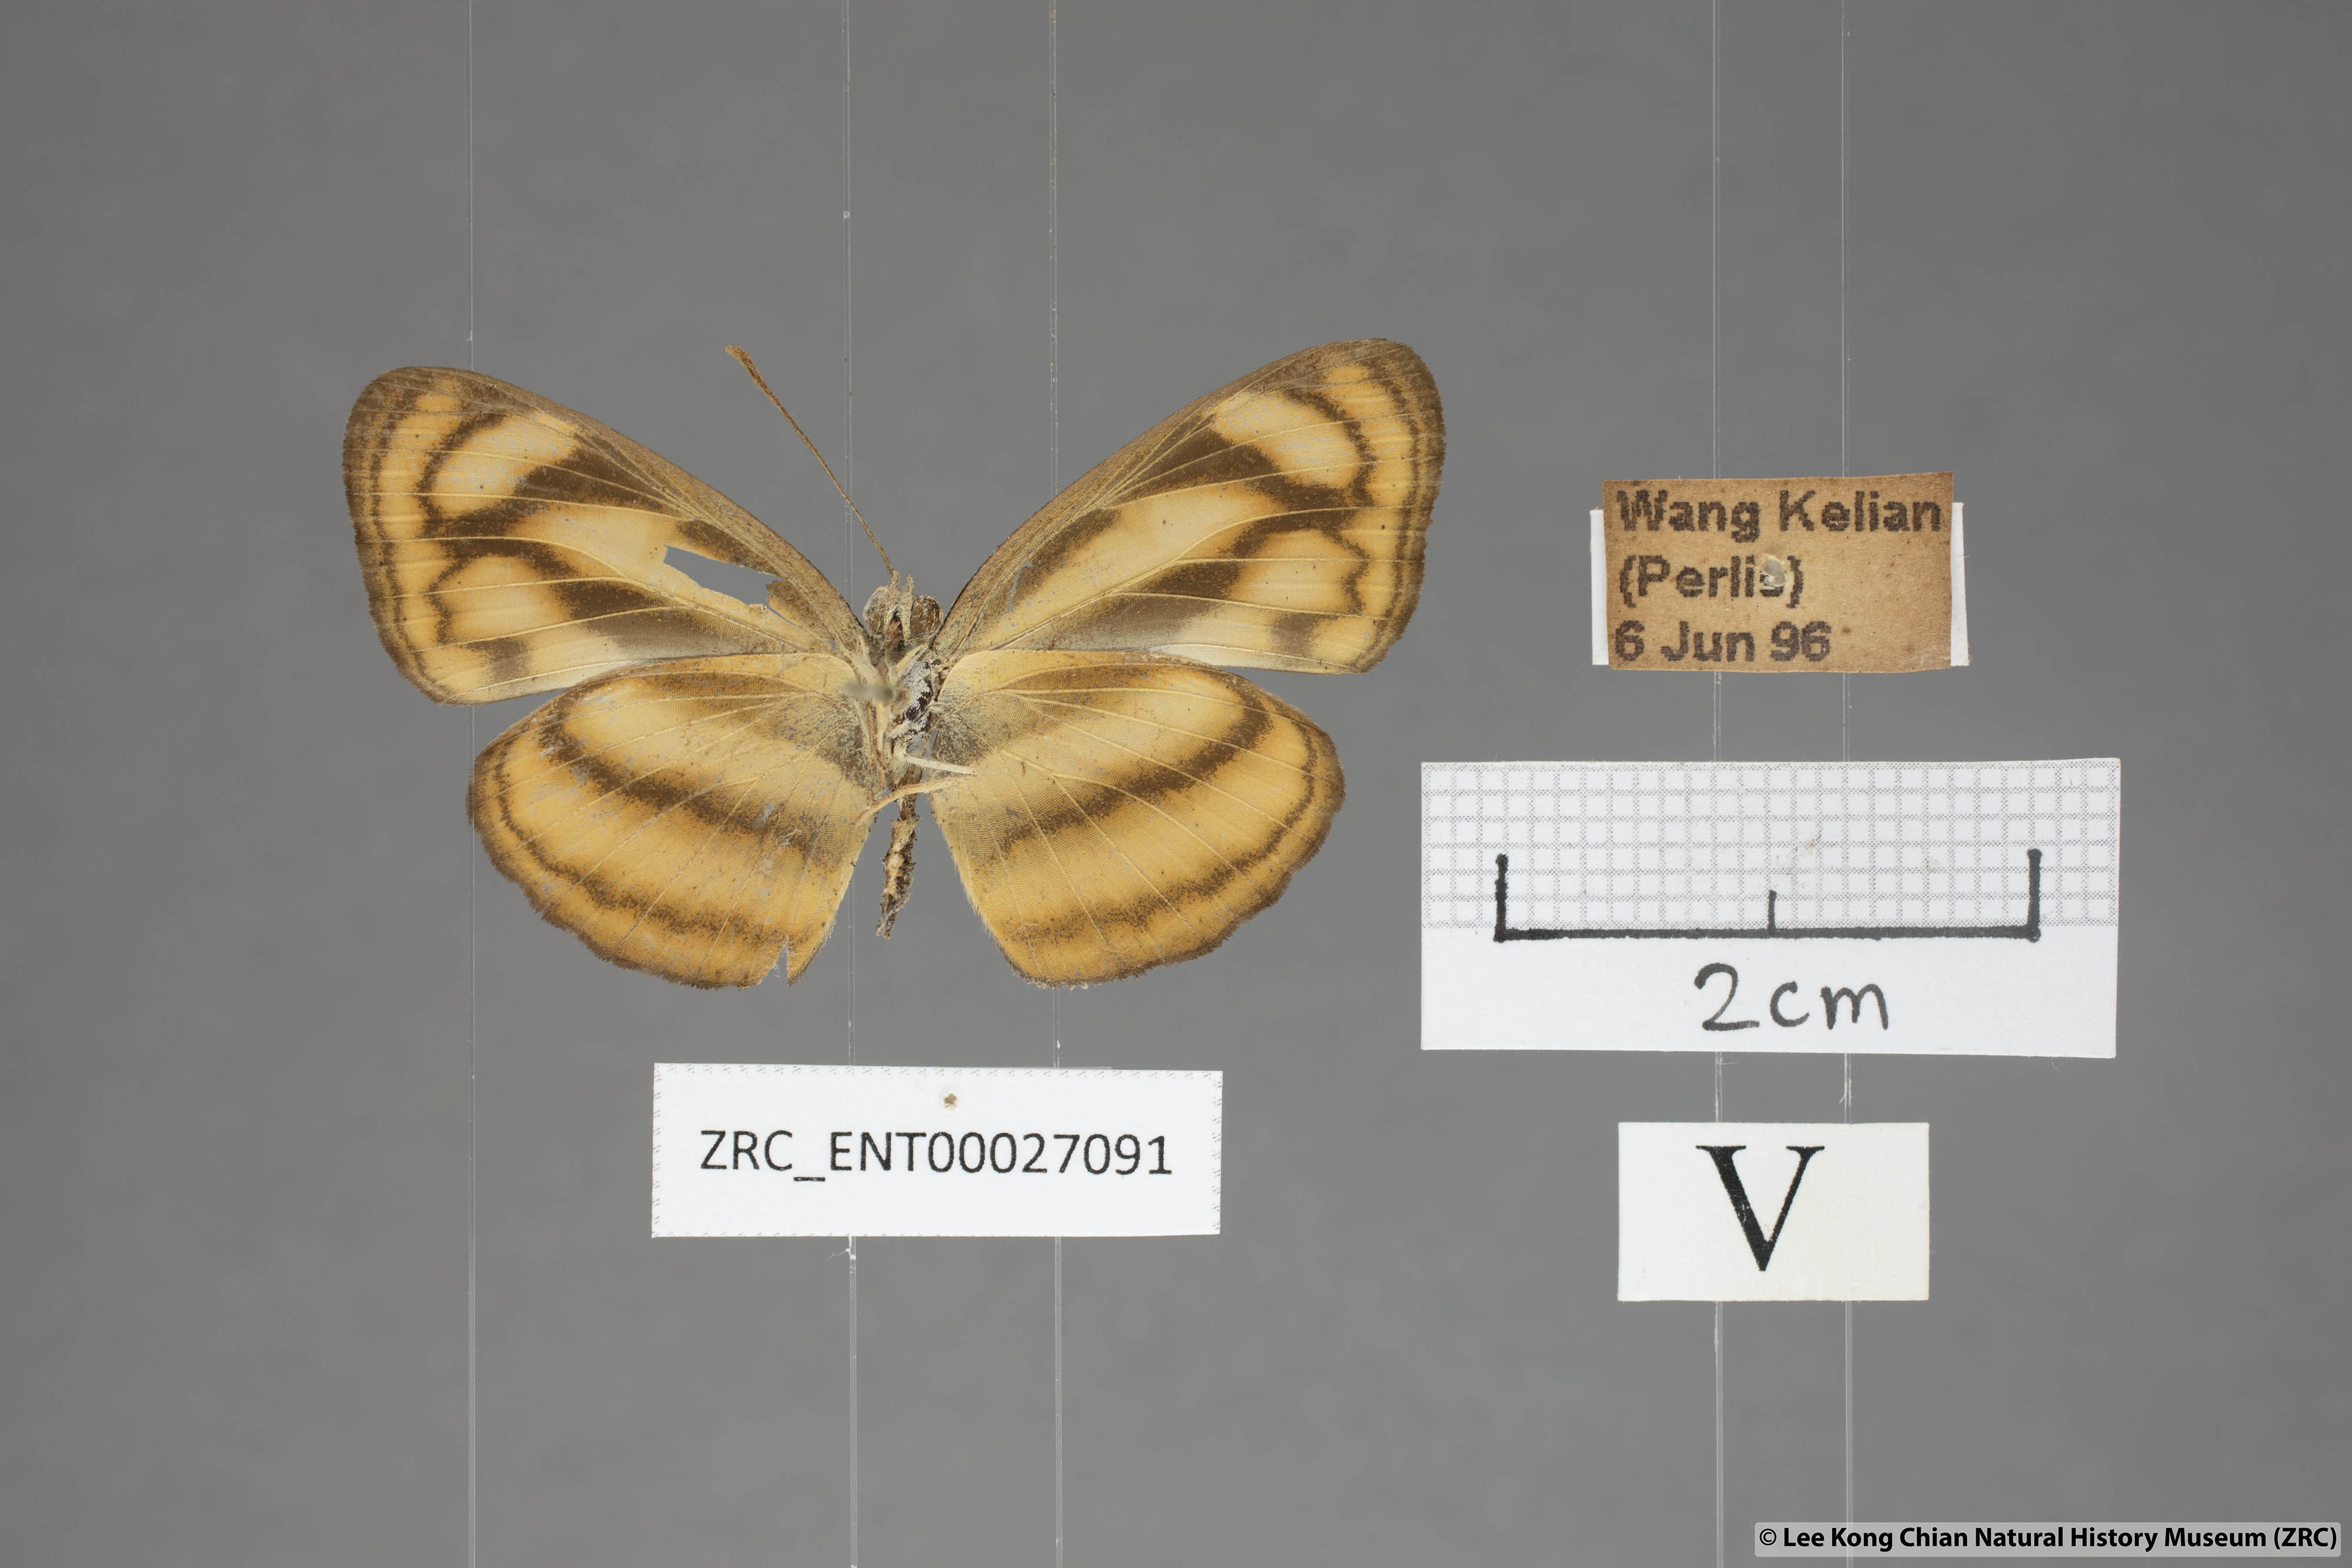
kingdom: Animalia
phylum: Arthropoda
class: Insecta
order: Lepidoptera
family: Nymphalidae
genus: Lasippa
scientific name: Lasippa tiga
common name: Malayan lascar
